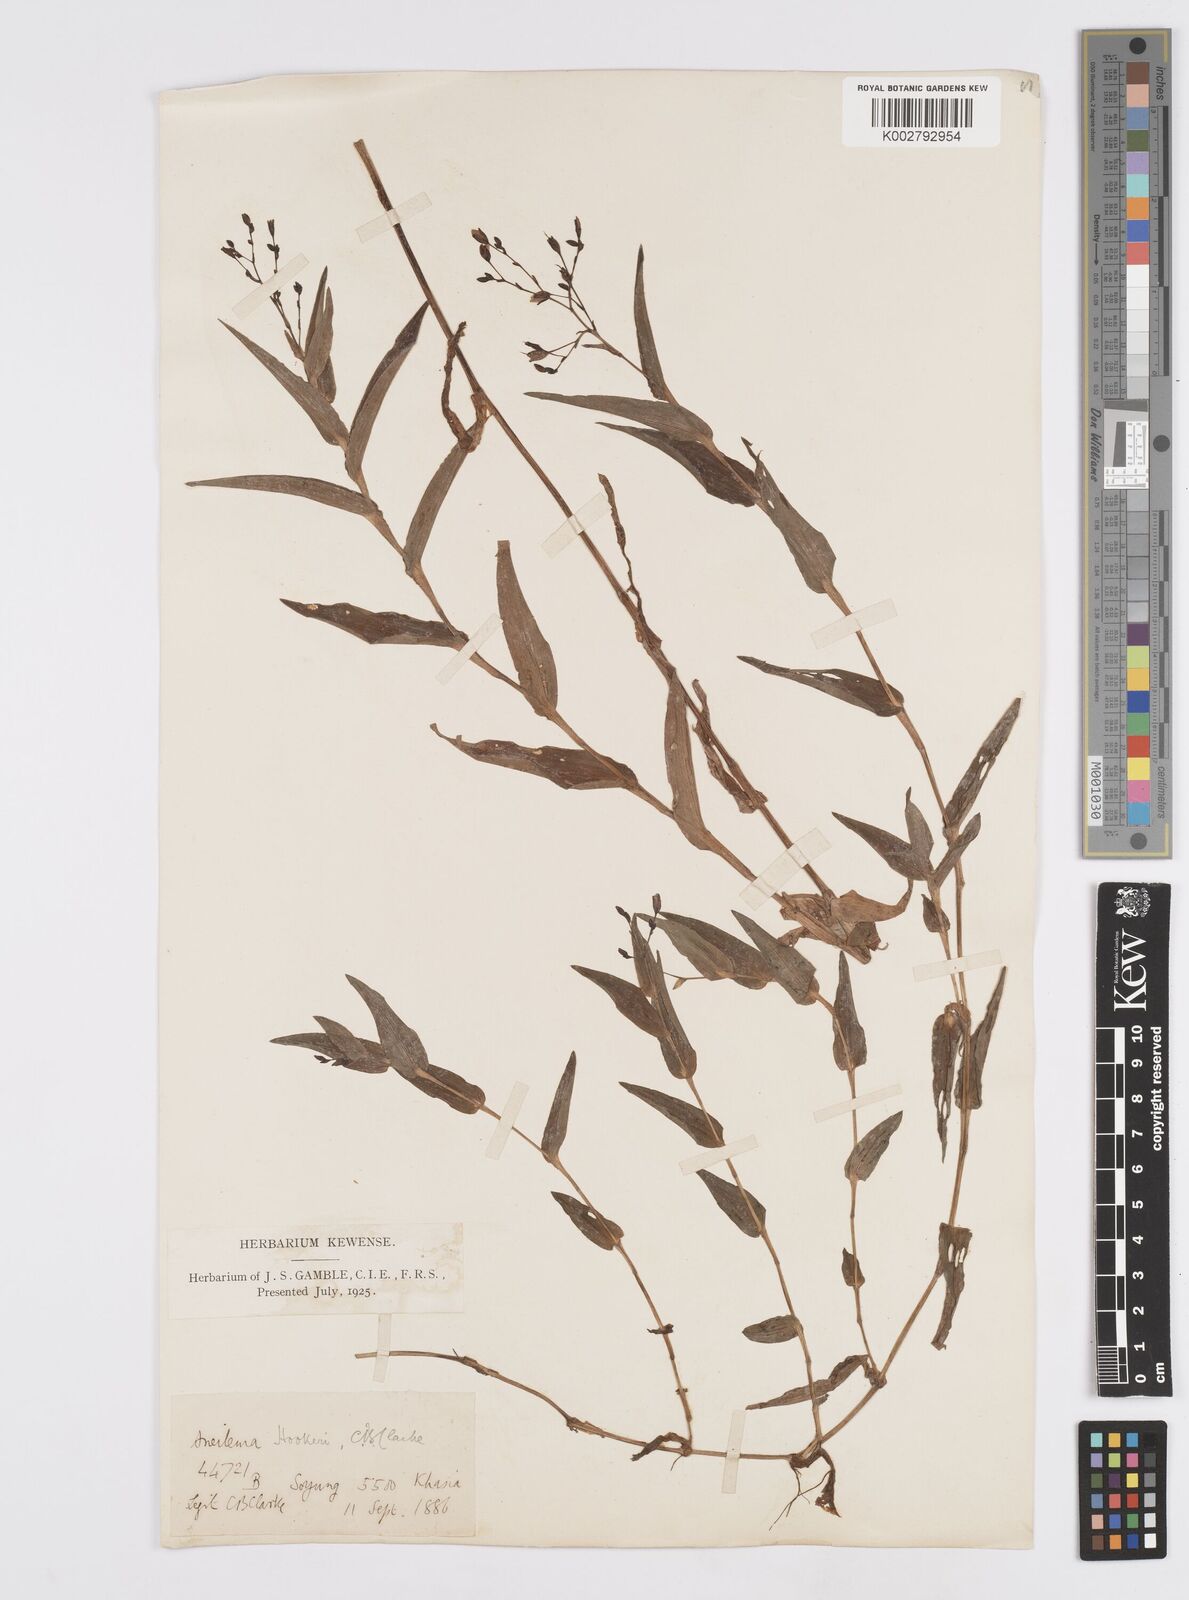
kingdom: Plantae
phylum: Tracheophyta
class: Liliopsida
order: Commelinales
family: Commelinaceae
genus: Murdannia
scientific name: Murdannia hookeri
